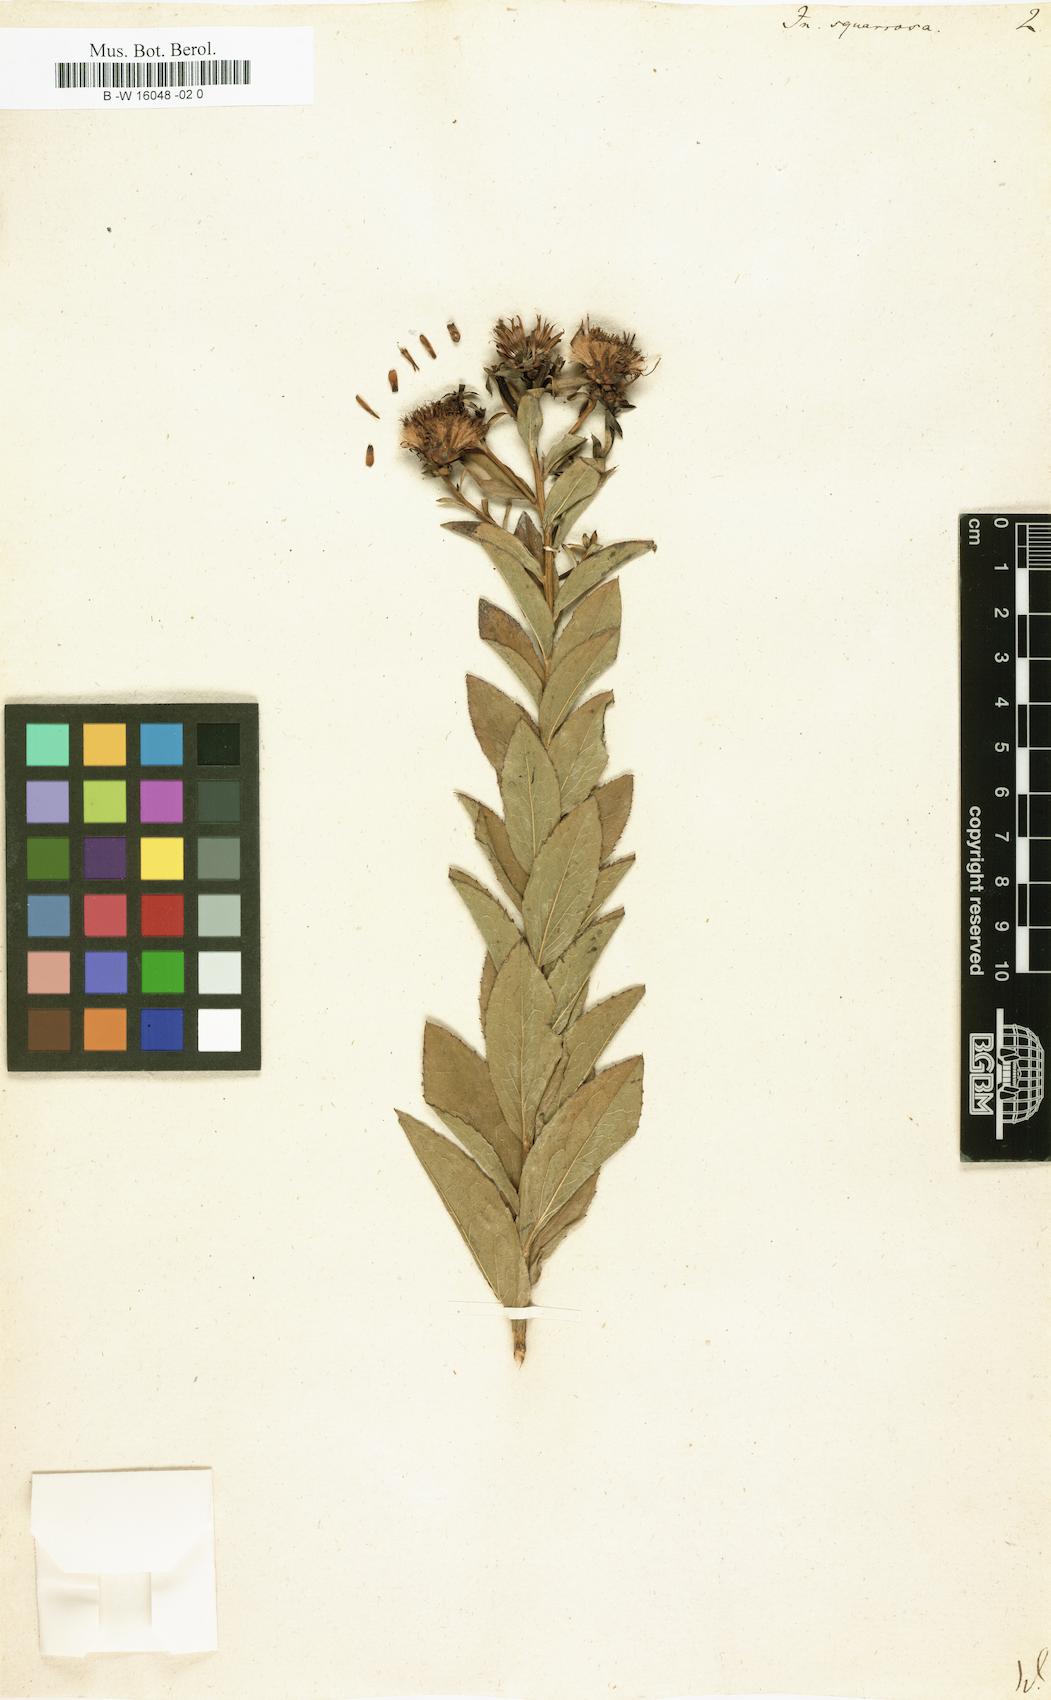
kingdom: Plantae
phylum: Tracheophyta
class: Magnoliopsida
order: Asterales
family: Asteraceae
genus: Pentanema
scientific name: Pentanema squarrosum
